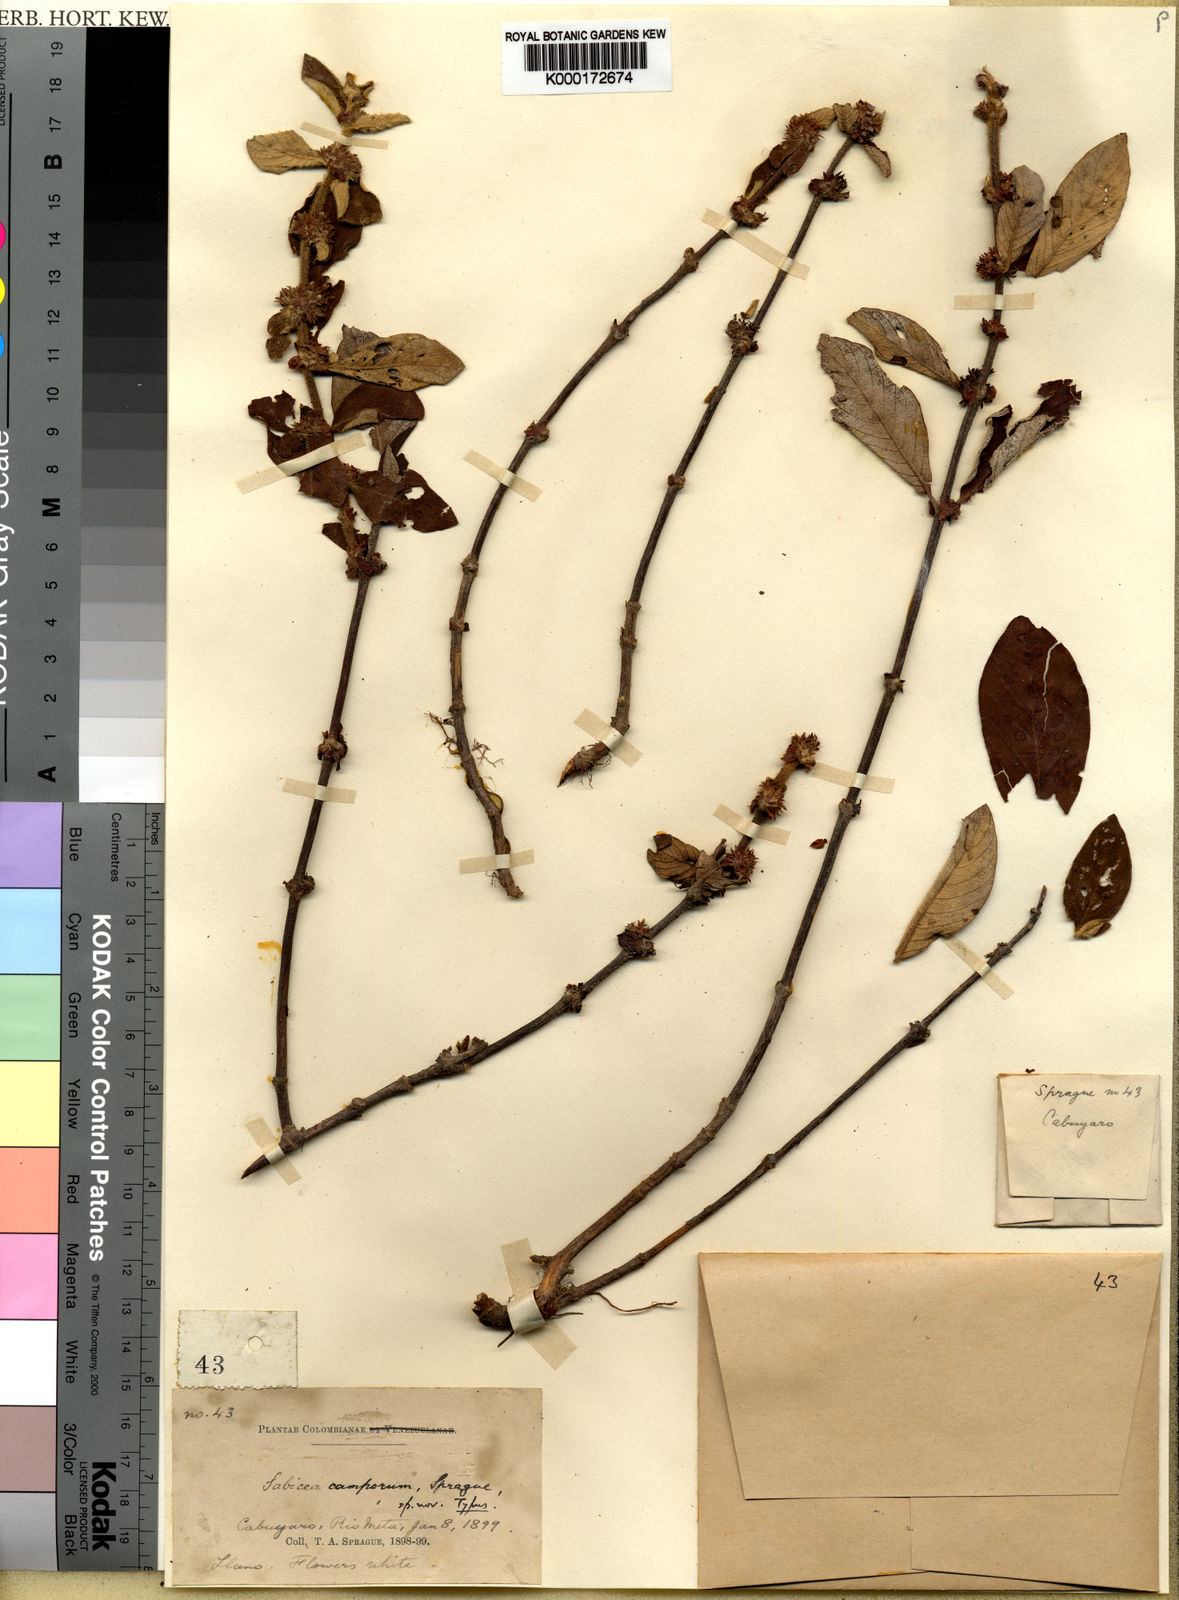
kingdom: Plantae
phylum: Tracheophyta
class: Magnoliopsida
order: Gentianales
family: Rubiaceae
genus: Sabicea
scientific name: Sabicea camporum
